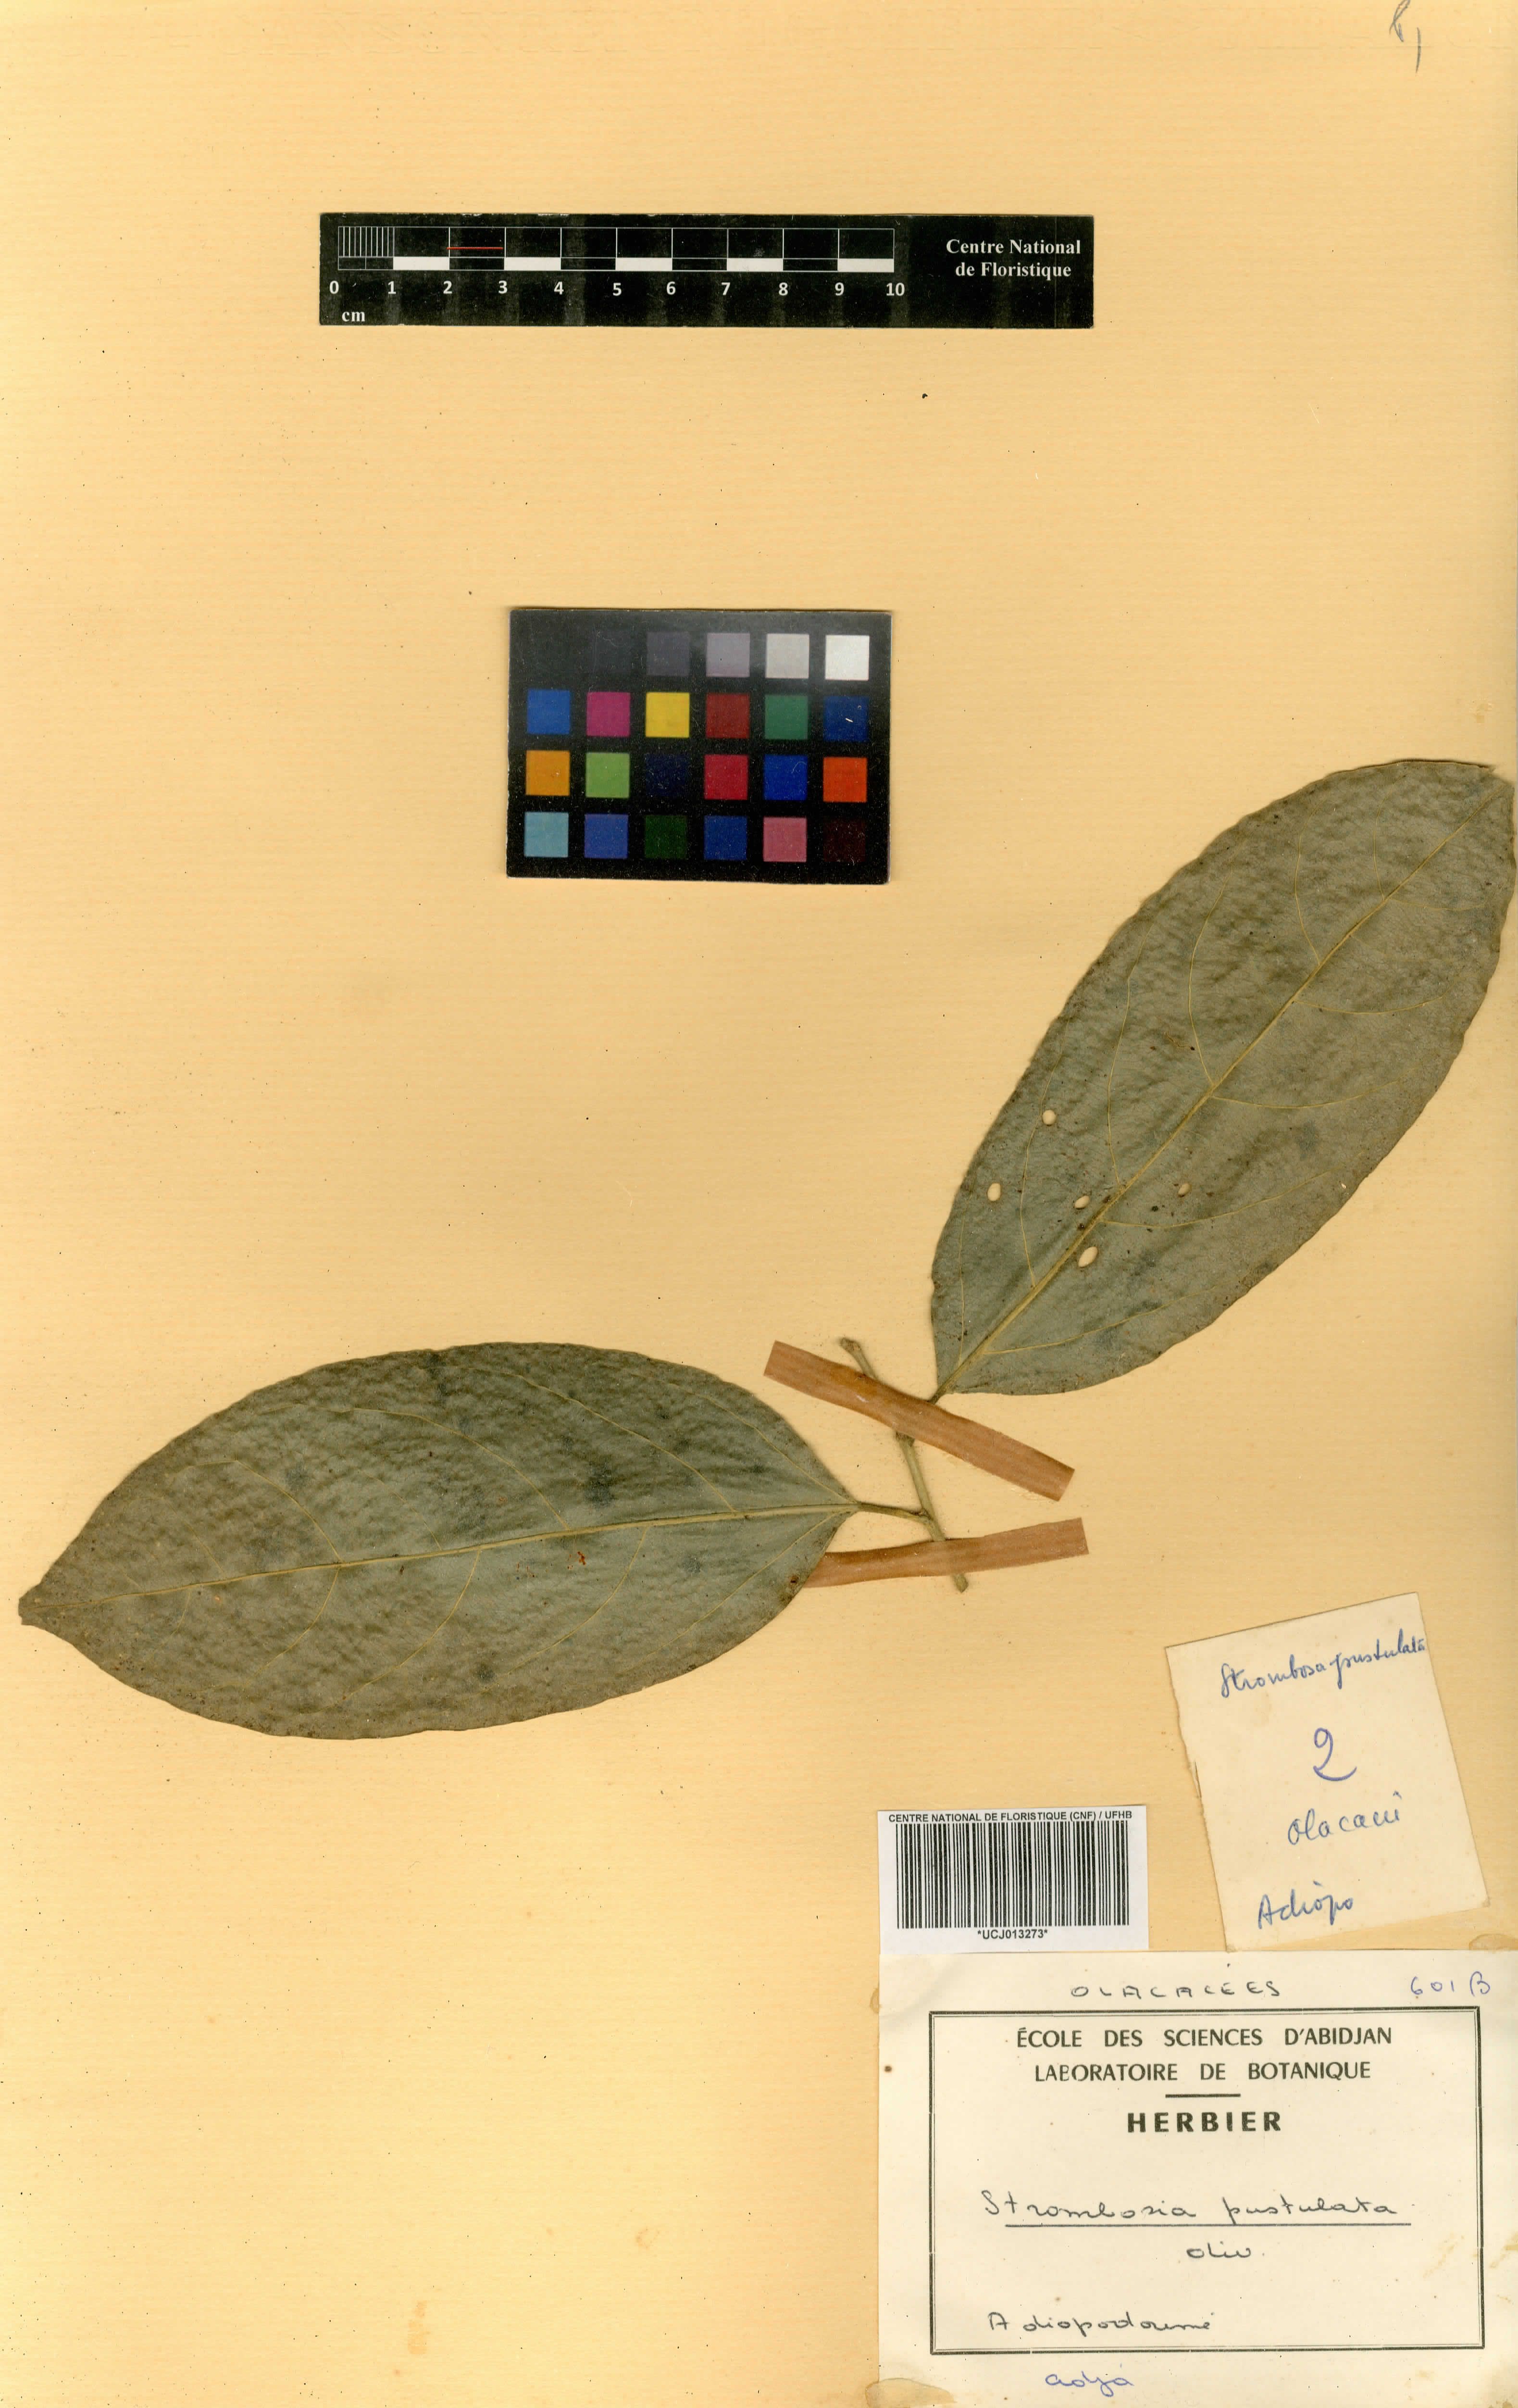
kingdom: Plantae
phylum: Tracheophyta
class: Magnoliopsida
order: Santalales
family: Strombosiaceae
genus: Strombosia
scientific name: Strombosia pustulata
